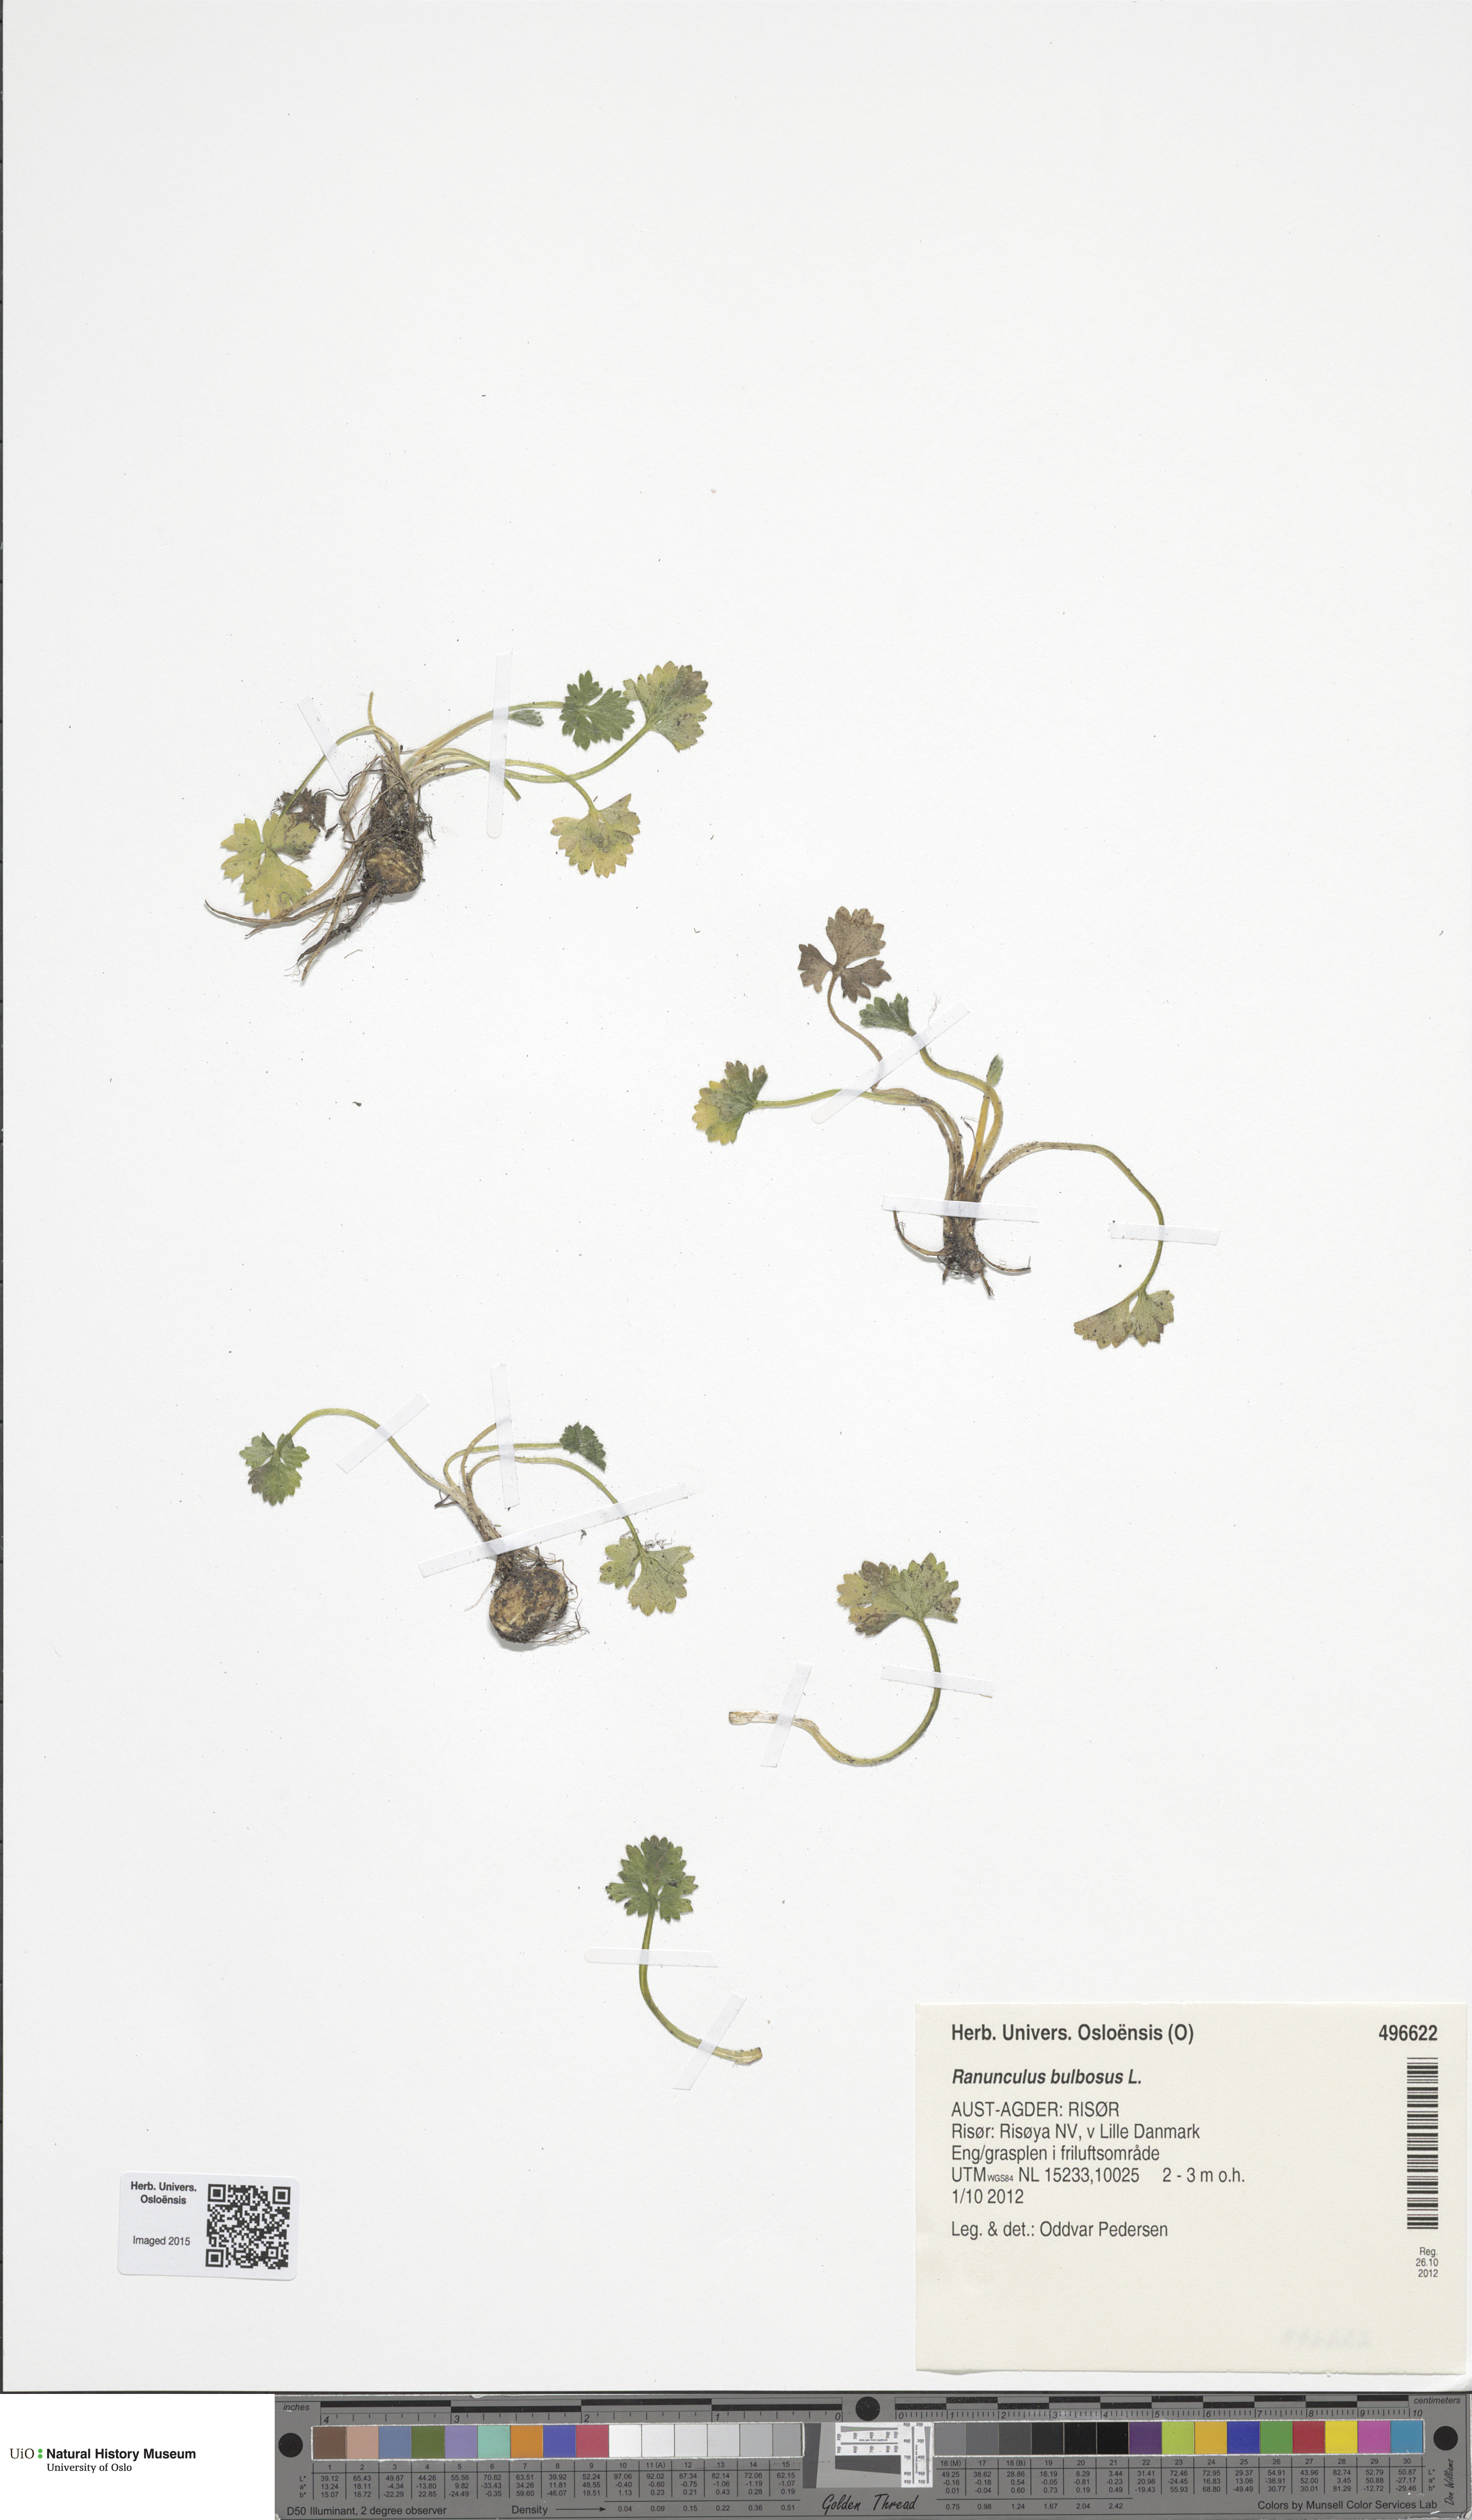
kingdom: Plantae
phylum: Tracheophyta
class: Magnoliopsida
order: Ranunculales
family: Ranunculaceae
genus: Ranunculus
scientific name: Ranunculus bulbosus
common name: Bulbous buttercup
